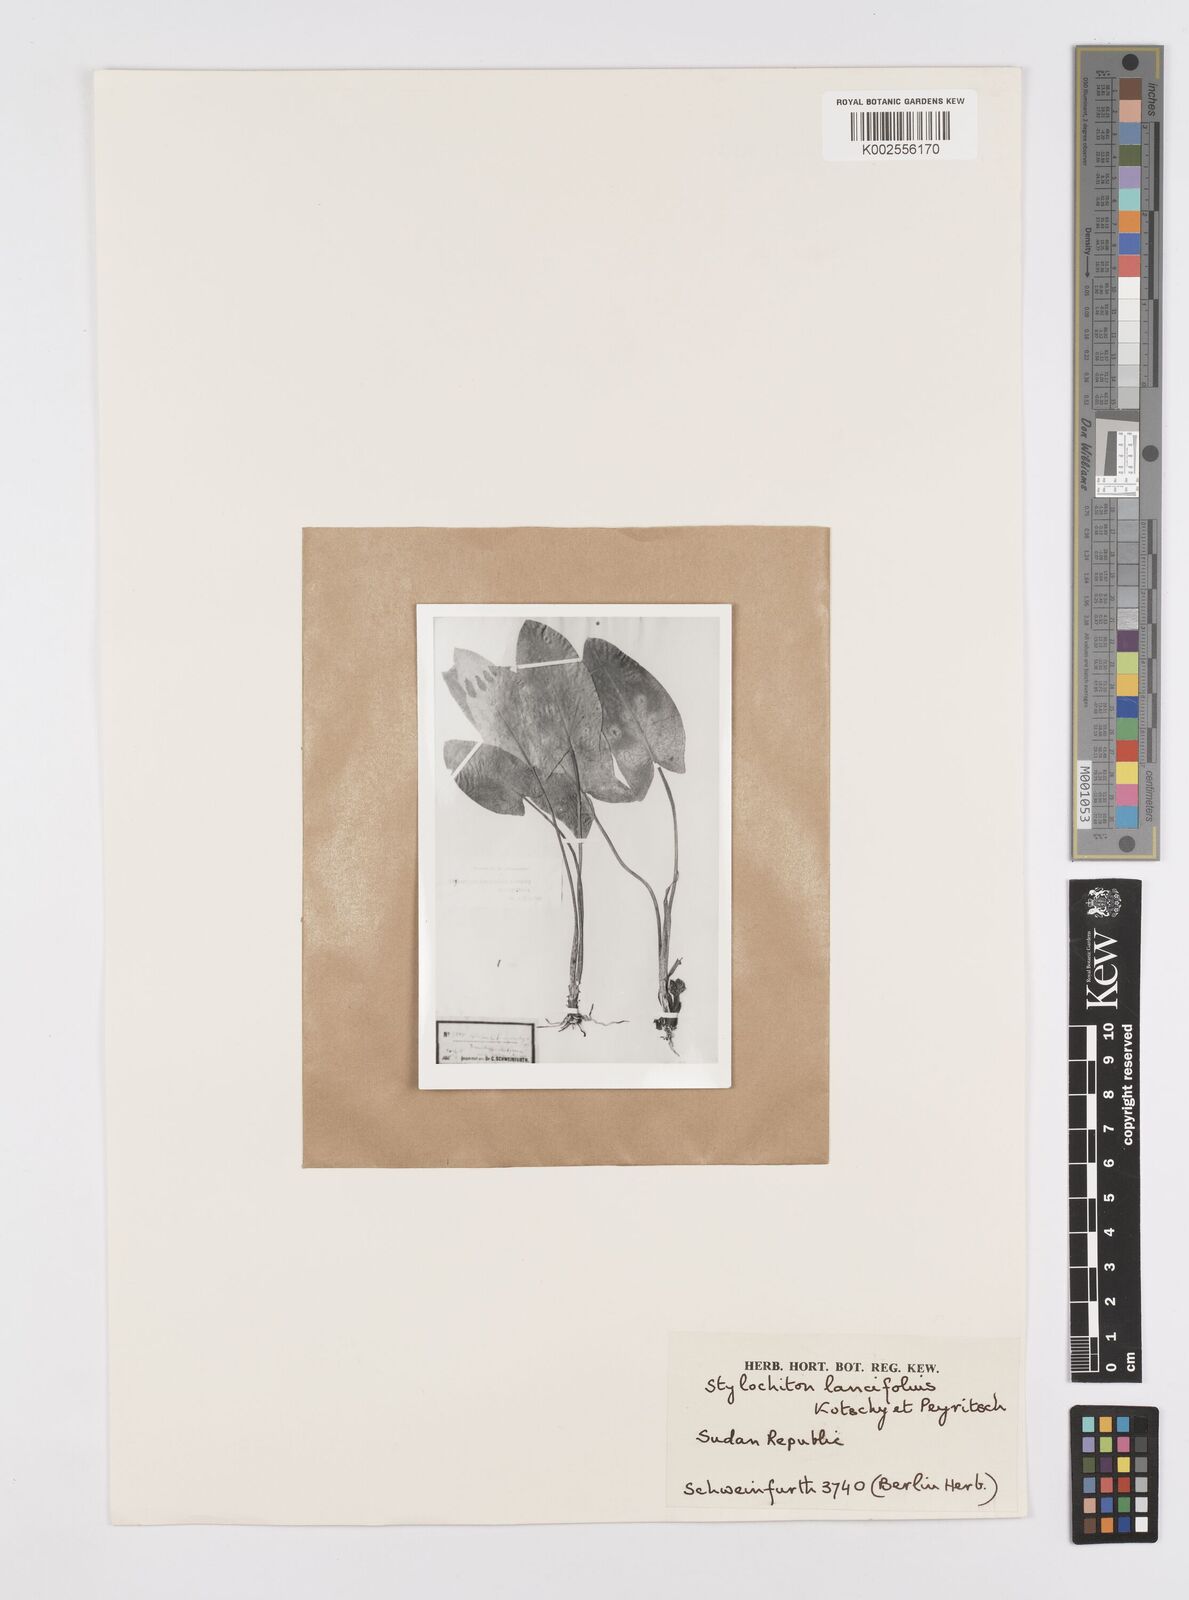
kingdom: Plantae
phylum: Tracheophyta
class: Liliopsida
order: Alismatales
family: Araceae
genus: Stylochaeton
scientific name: Stylochaeton lancifolium
